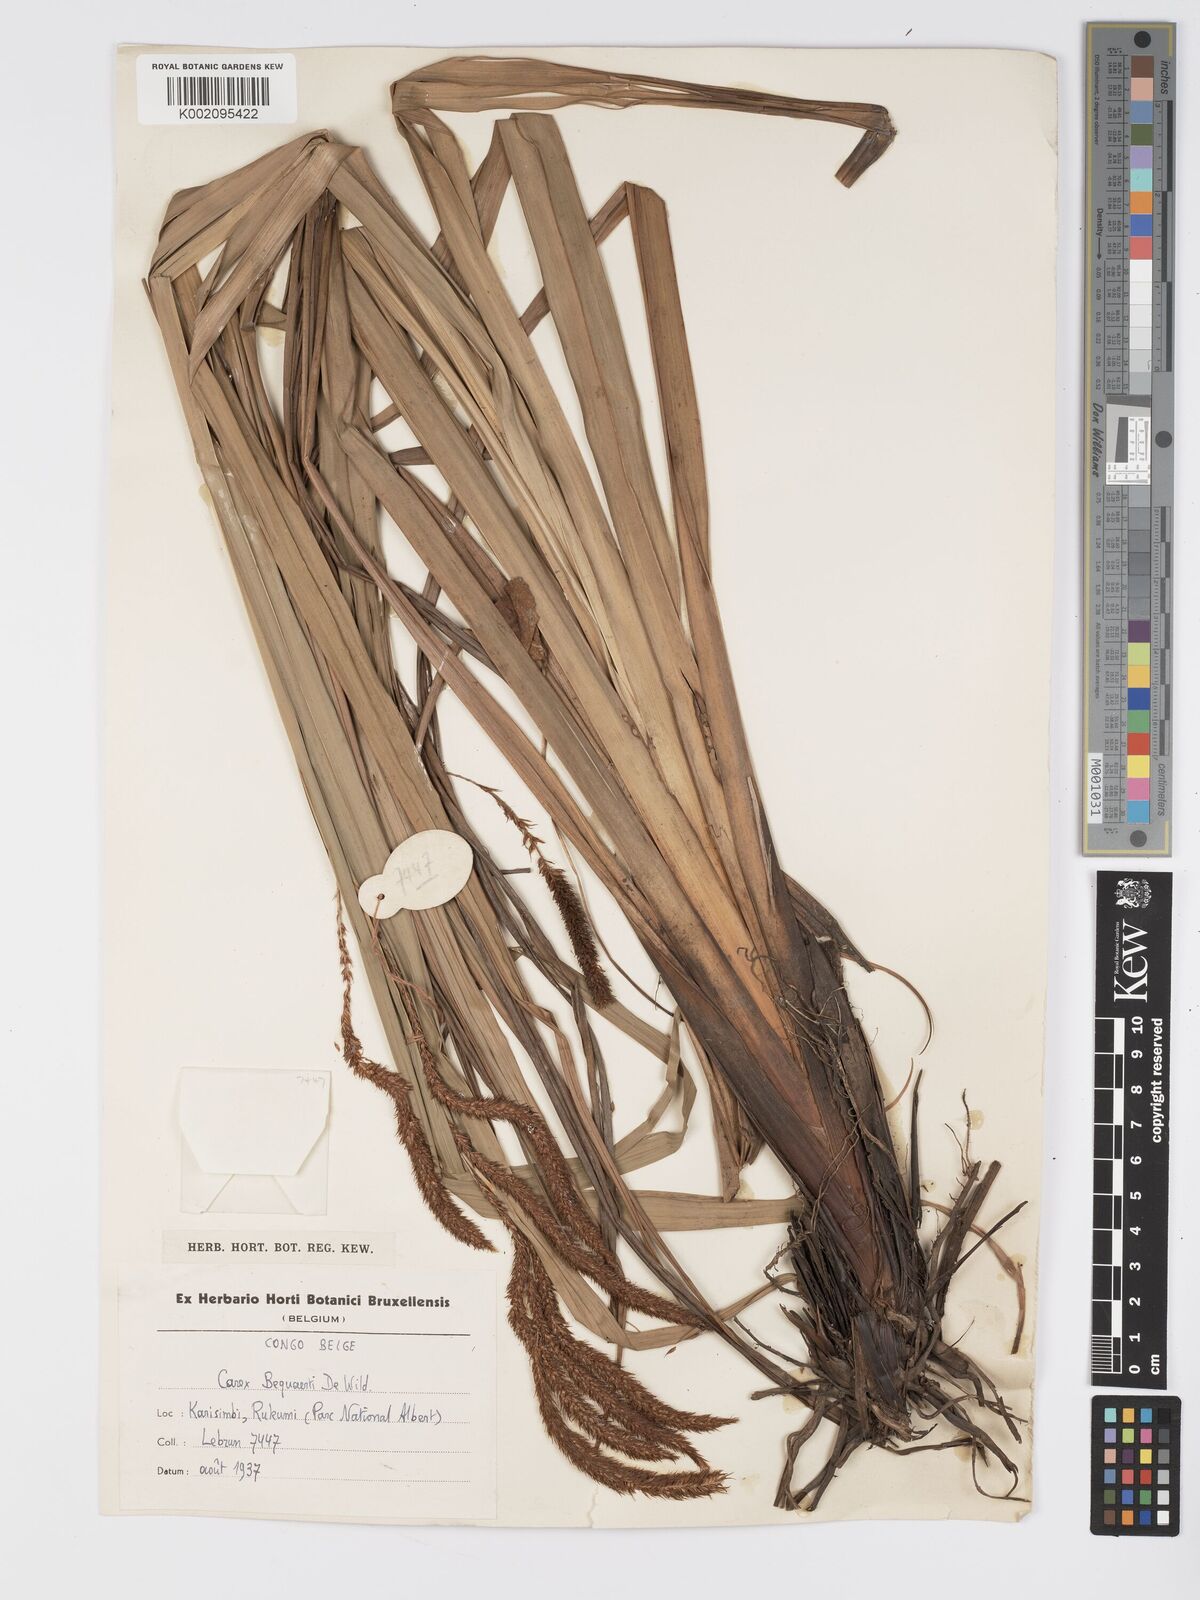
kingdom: Plantae
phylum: Tracheophyta
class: Liliopsida
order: Poales
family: Cyperaceae
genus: Carex
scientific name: Carex bequaertii
